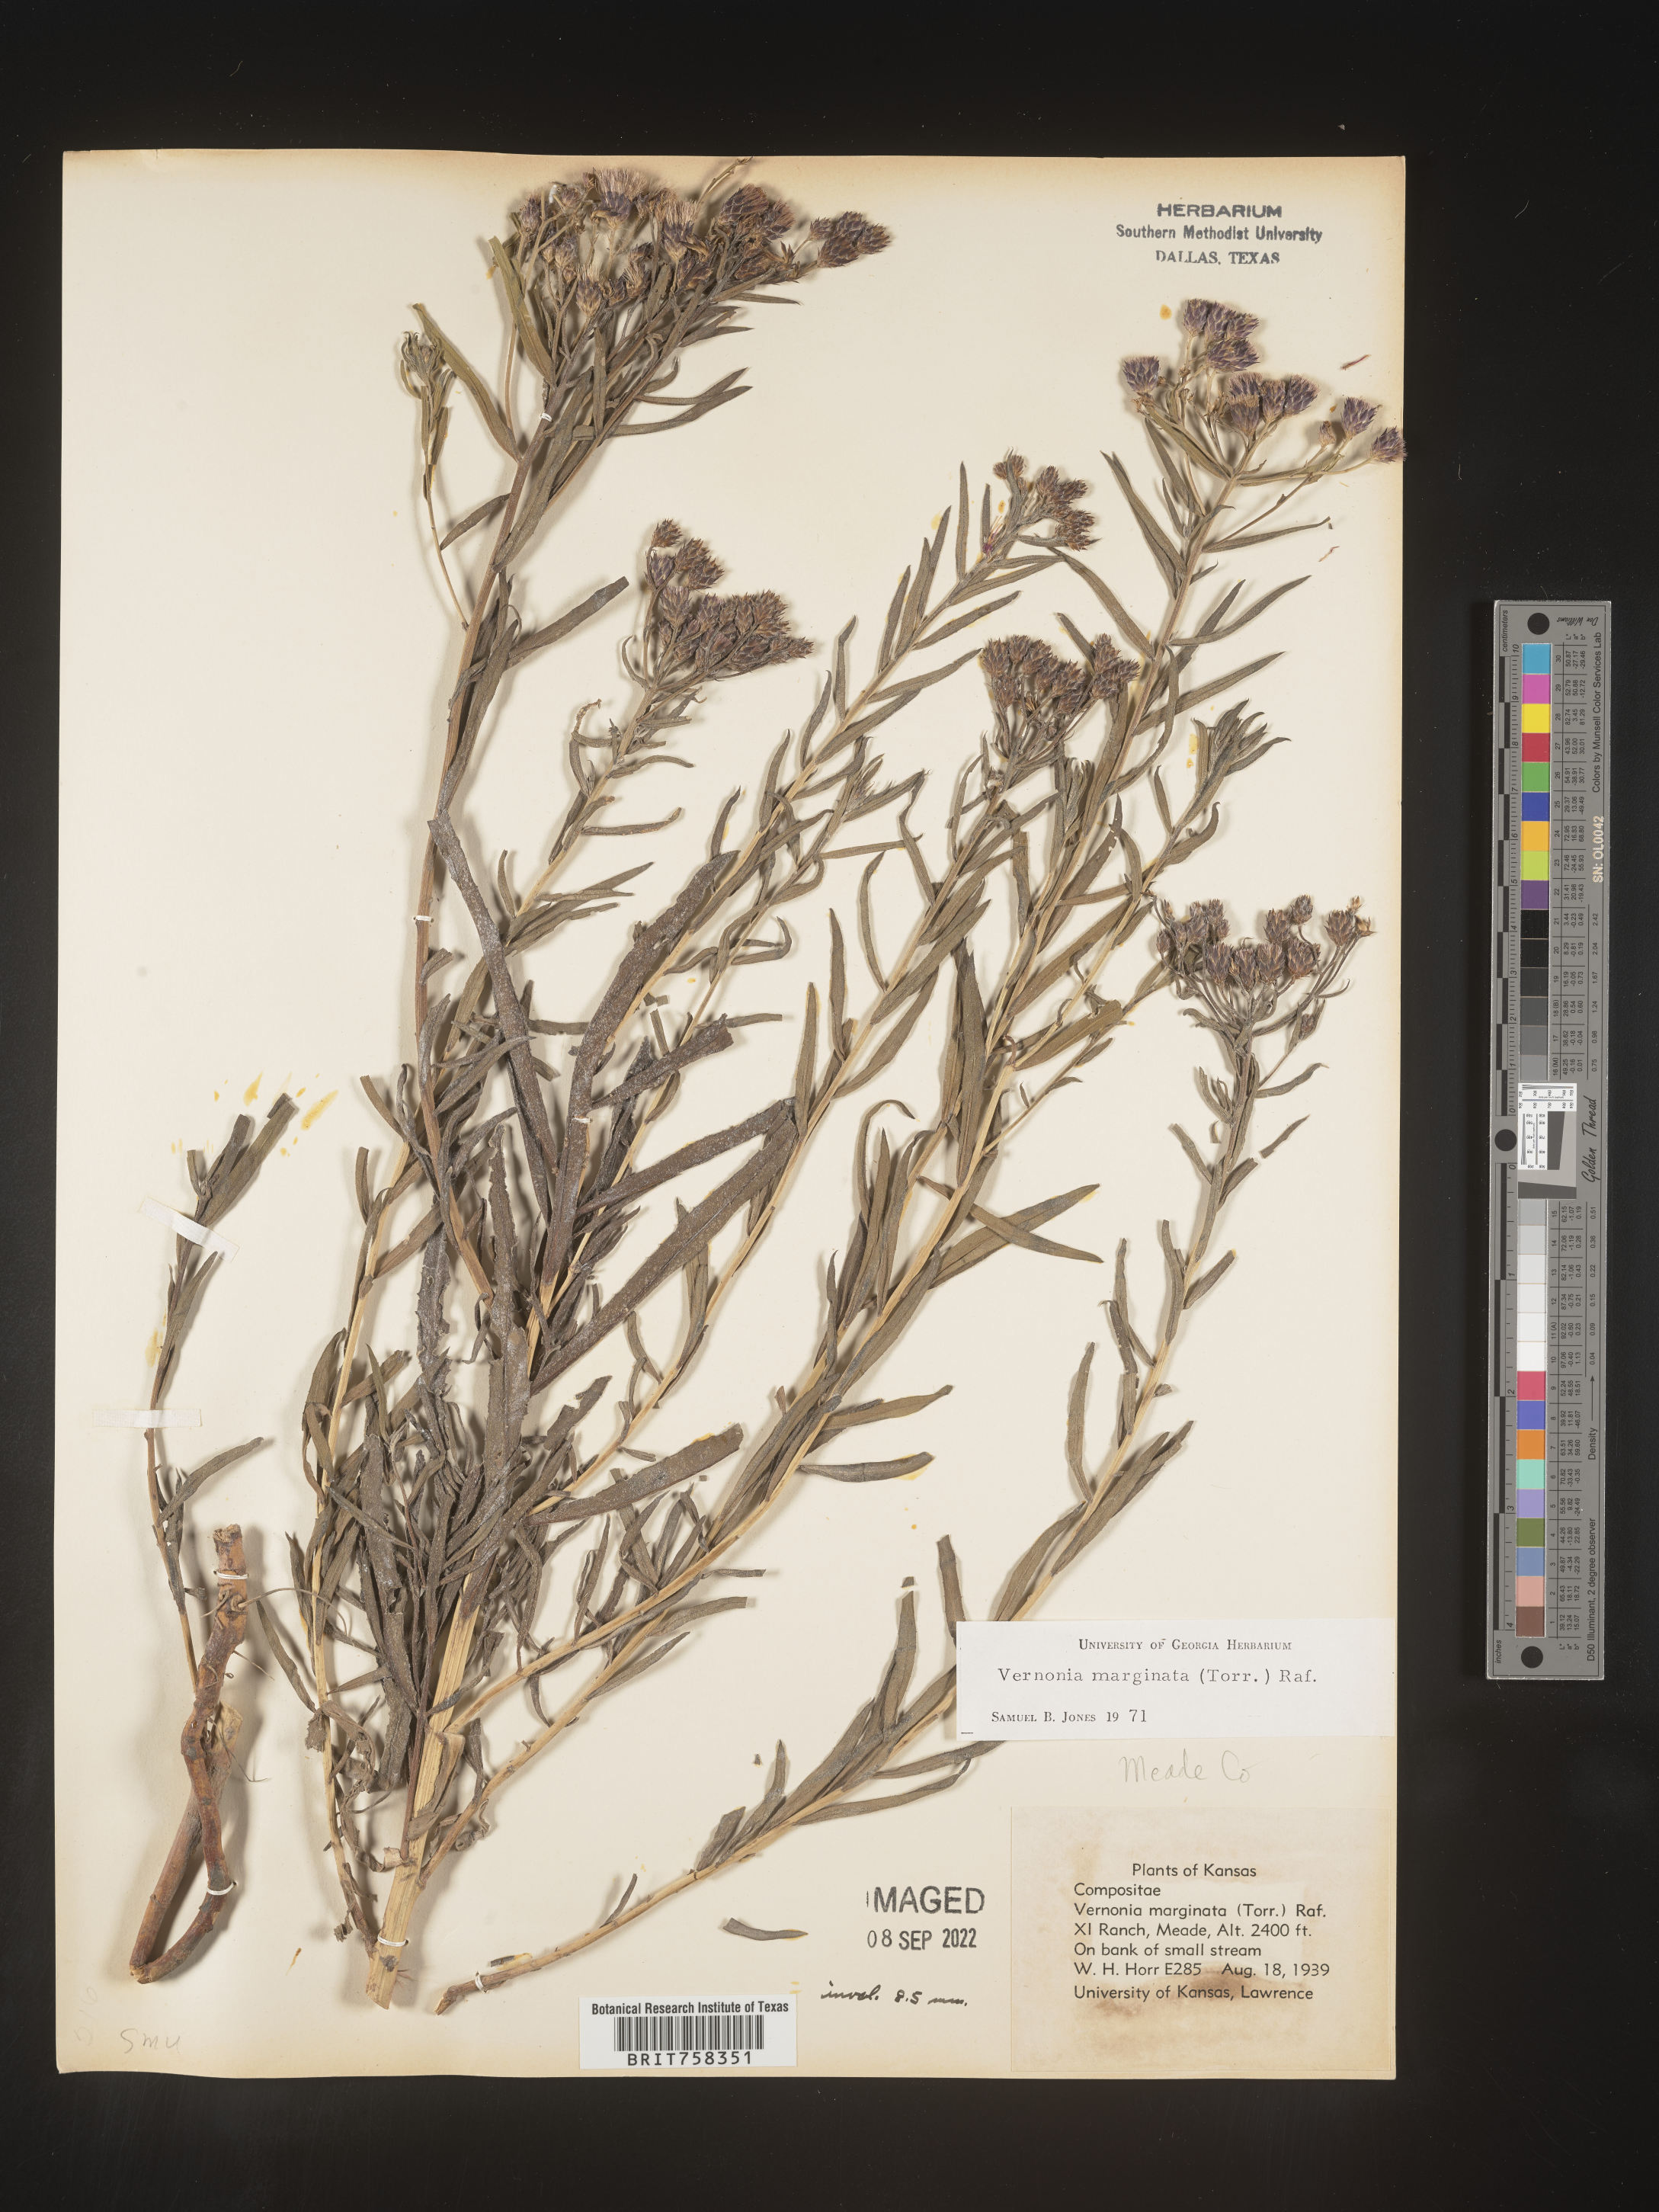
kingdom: Plantae
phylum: Tracheophyta
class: Magnoliopsida
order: Asterales
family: Asteraceae
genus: Vernonia
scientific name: Vernonia marginata
